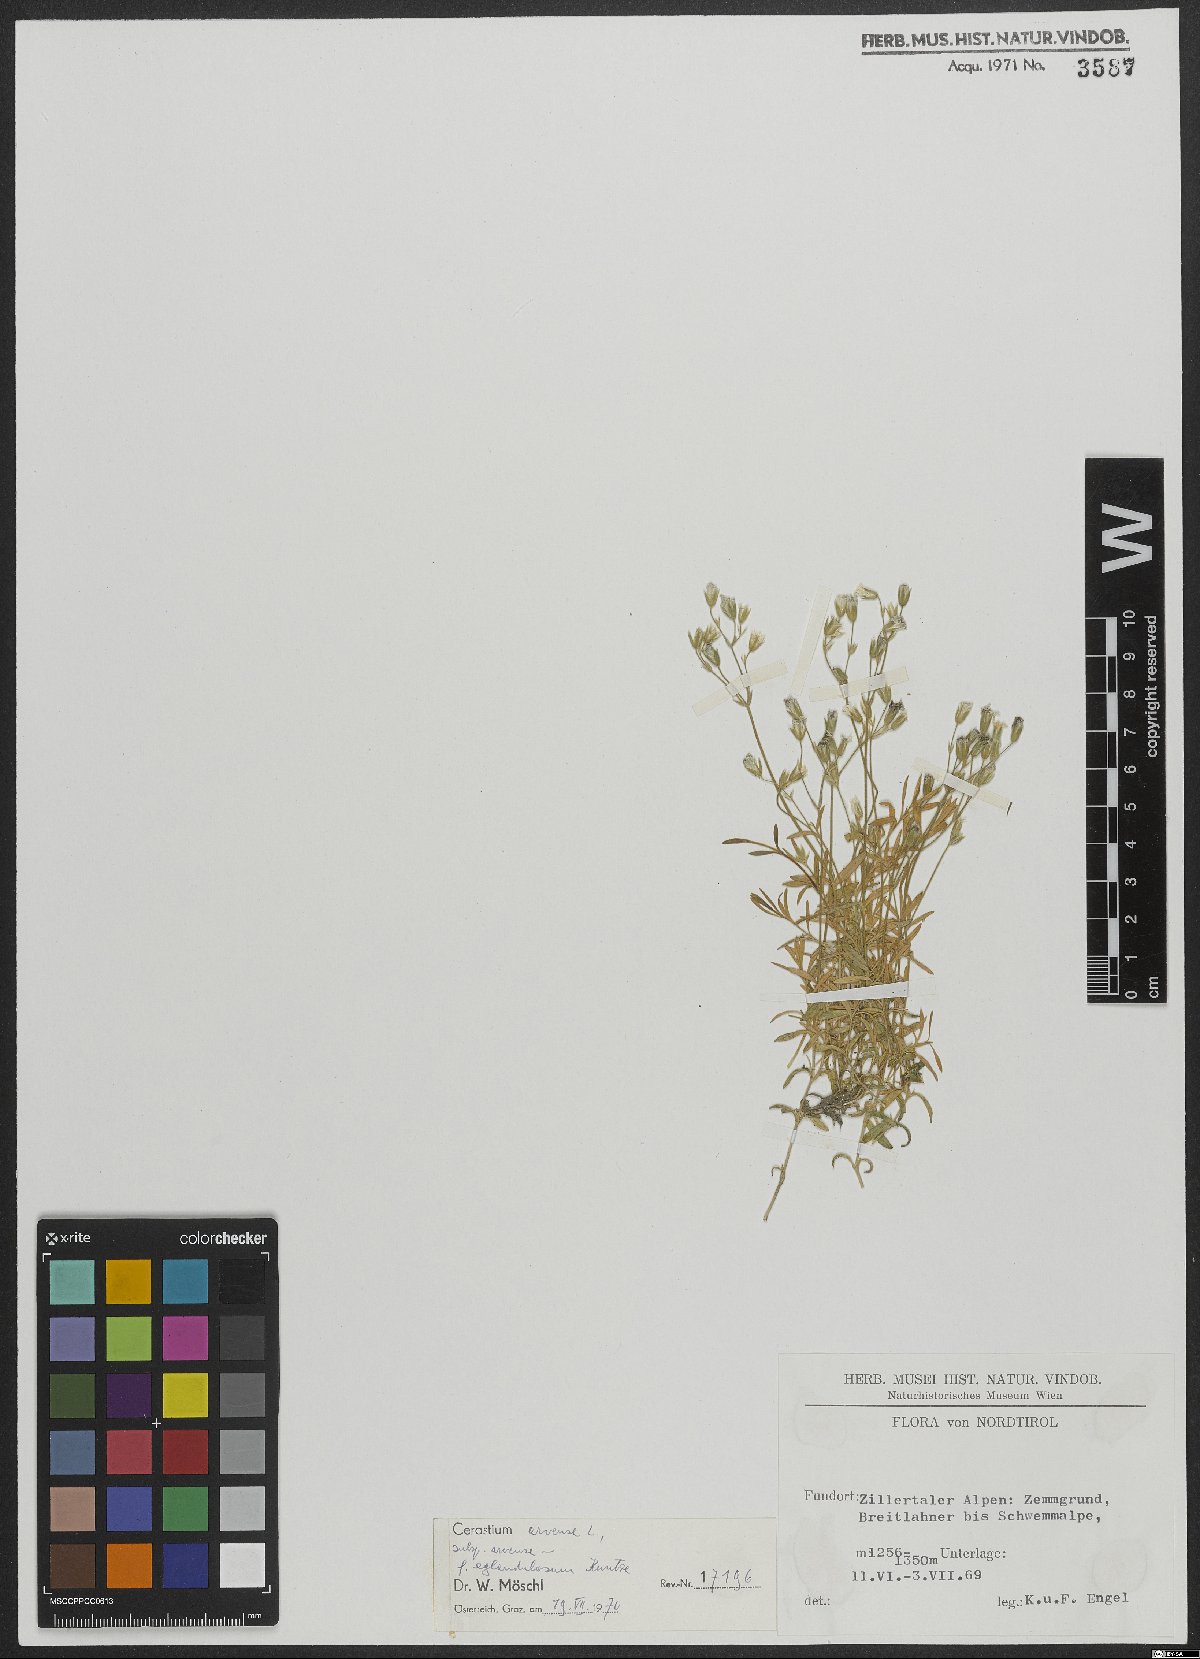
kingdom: Plantae
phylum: Tracheophyta
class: Magnoliopsida
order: Caryophyllales
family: Caryophyllaceae
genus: Cerastium
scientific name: Cerastium arvense
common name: Field mouse-ear
